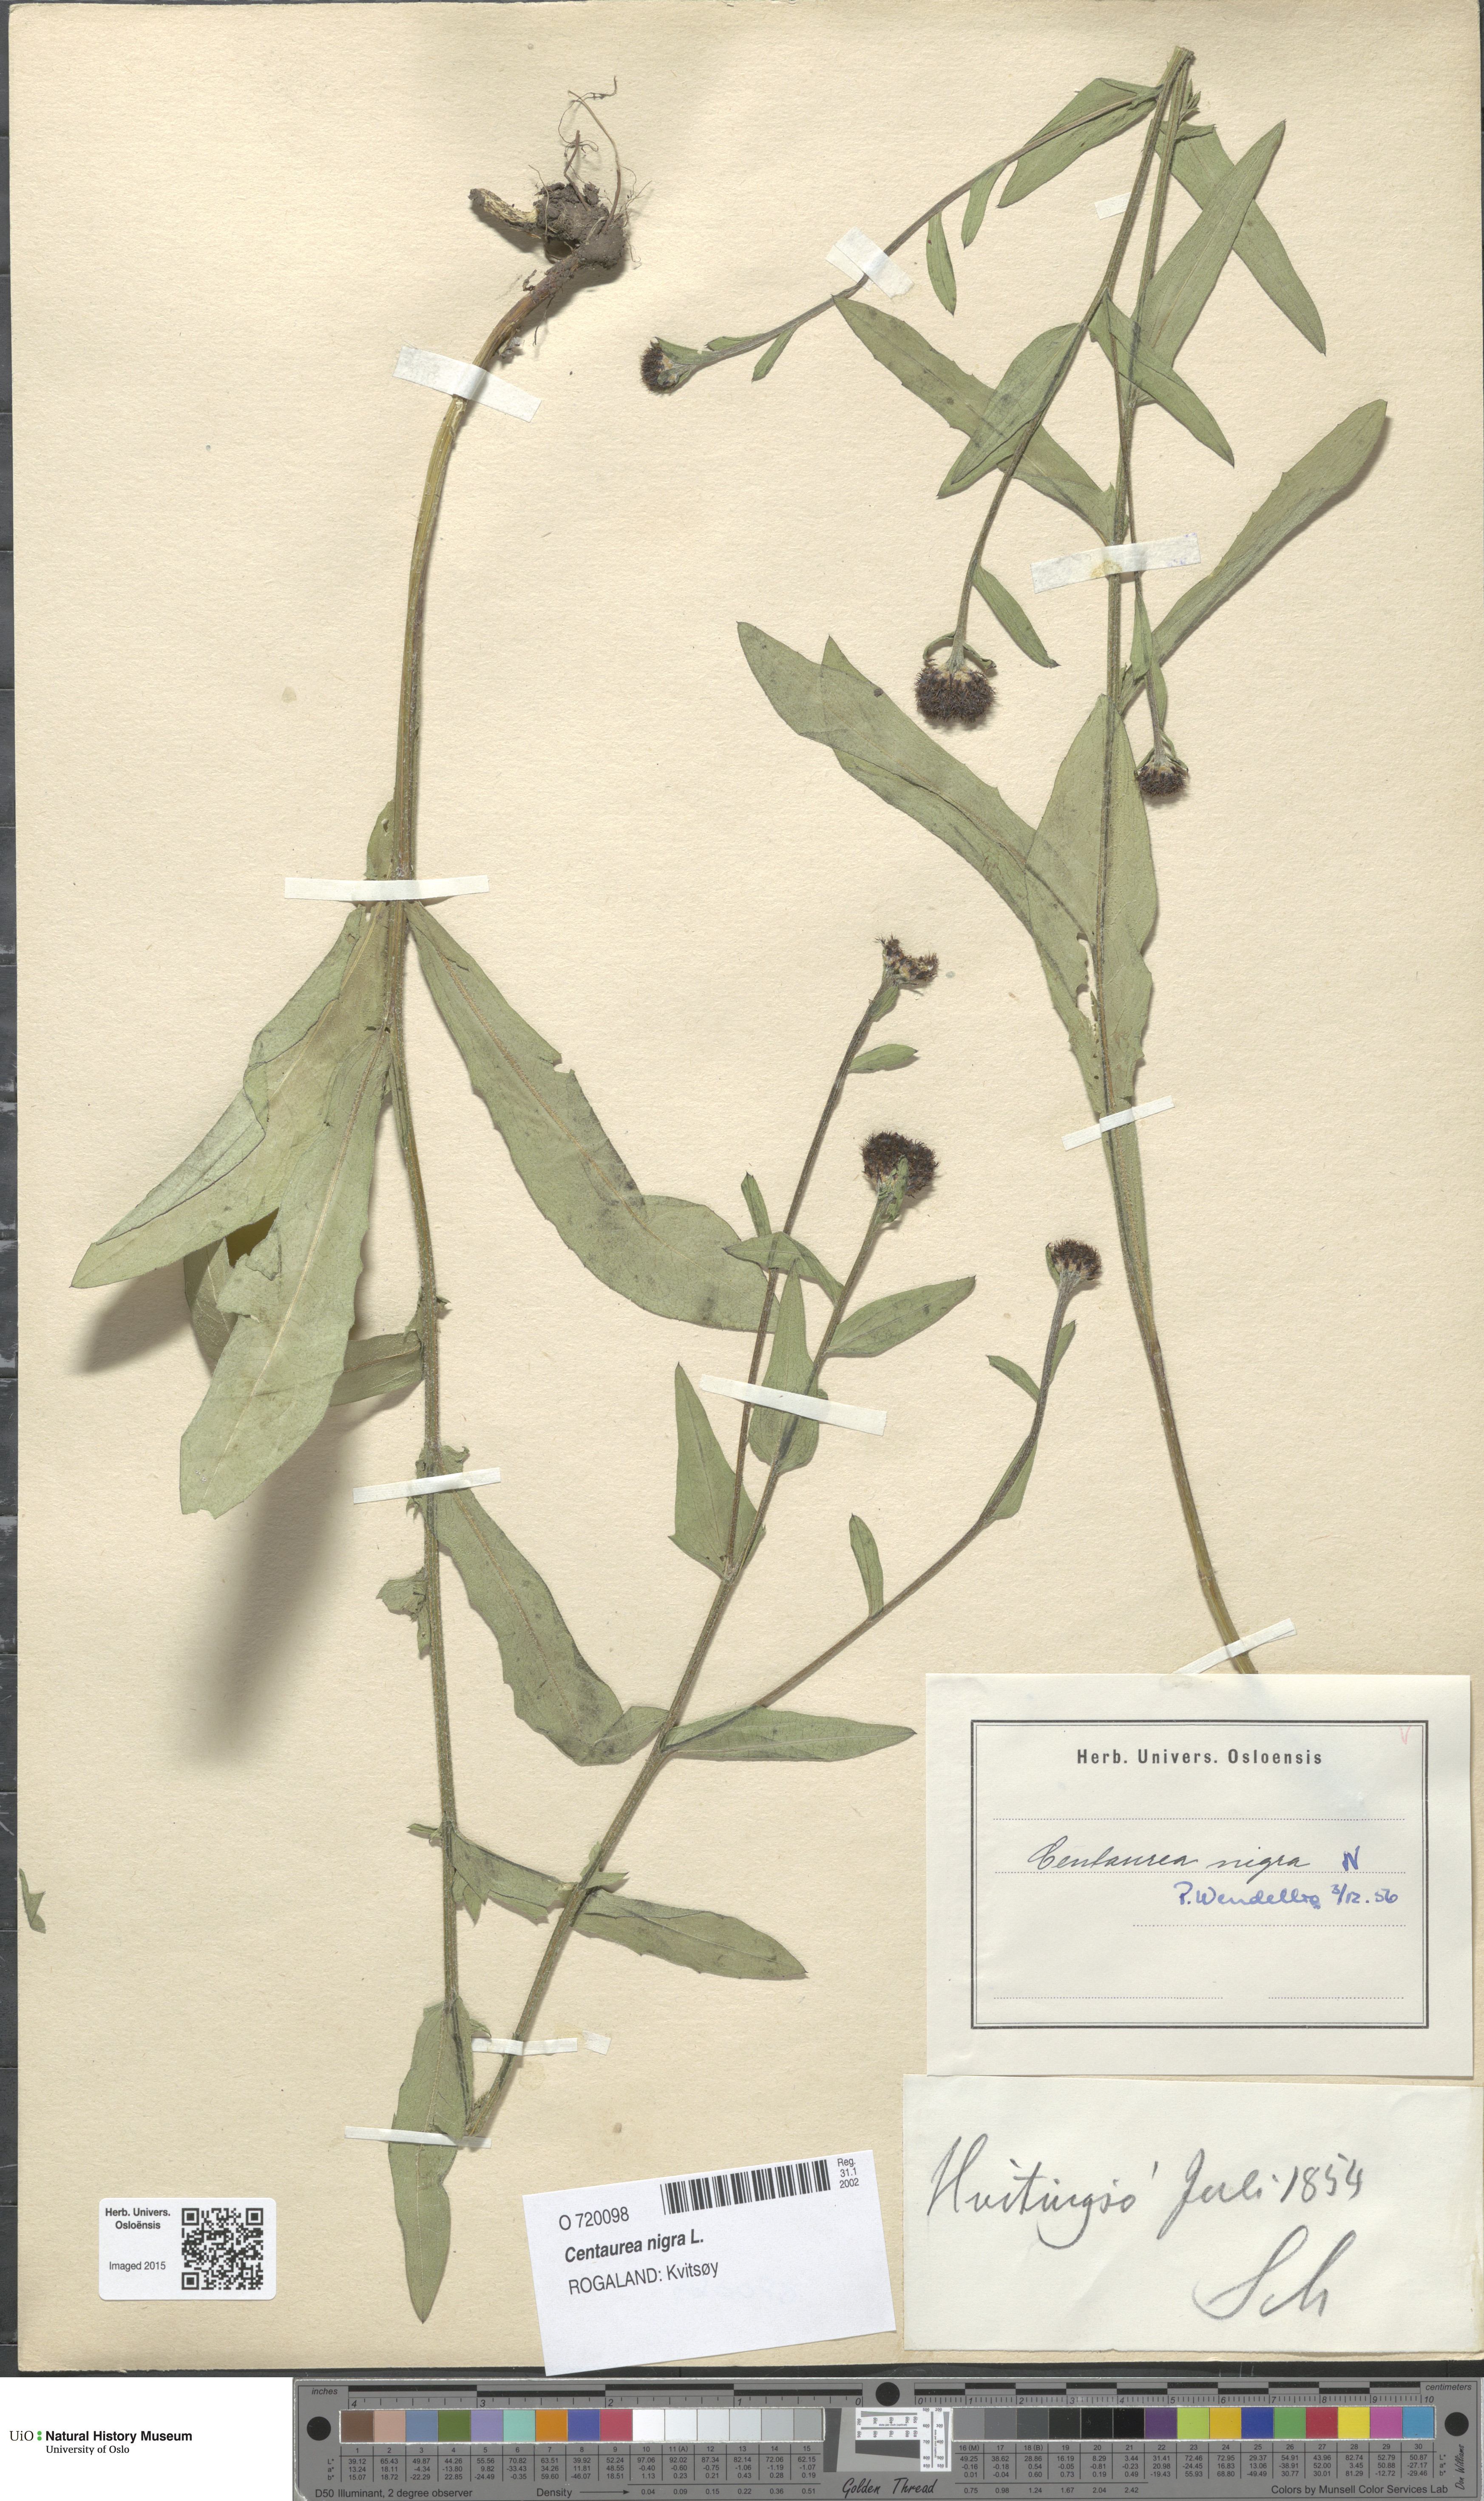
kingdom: Plantae
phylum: Tracheophyta
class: Magnoliopsida
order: Asterales
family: Asteraceae
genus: Centaurea
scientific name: Centaurea nigra
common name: Lesser knapweed
